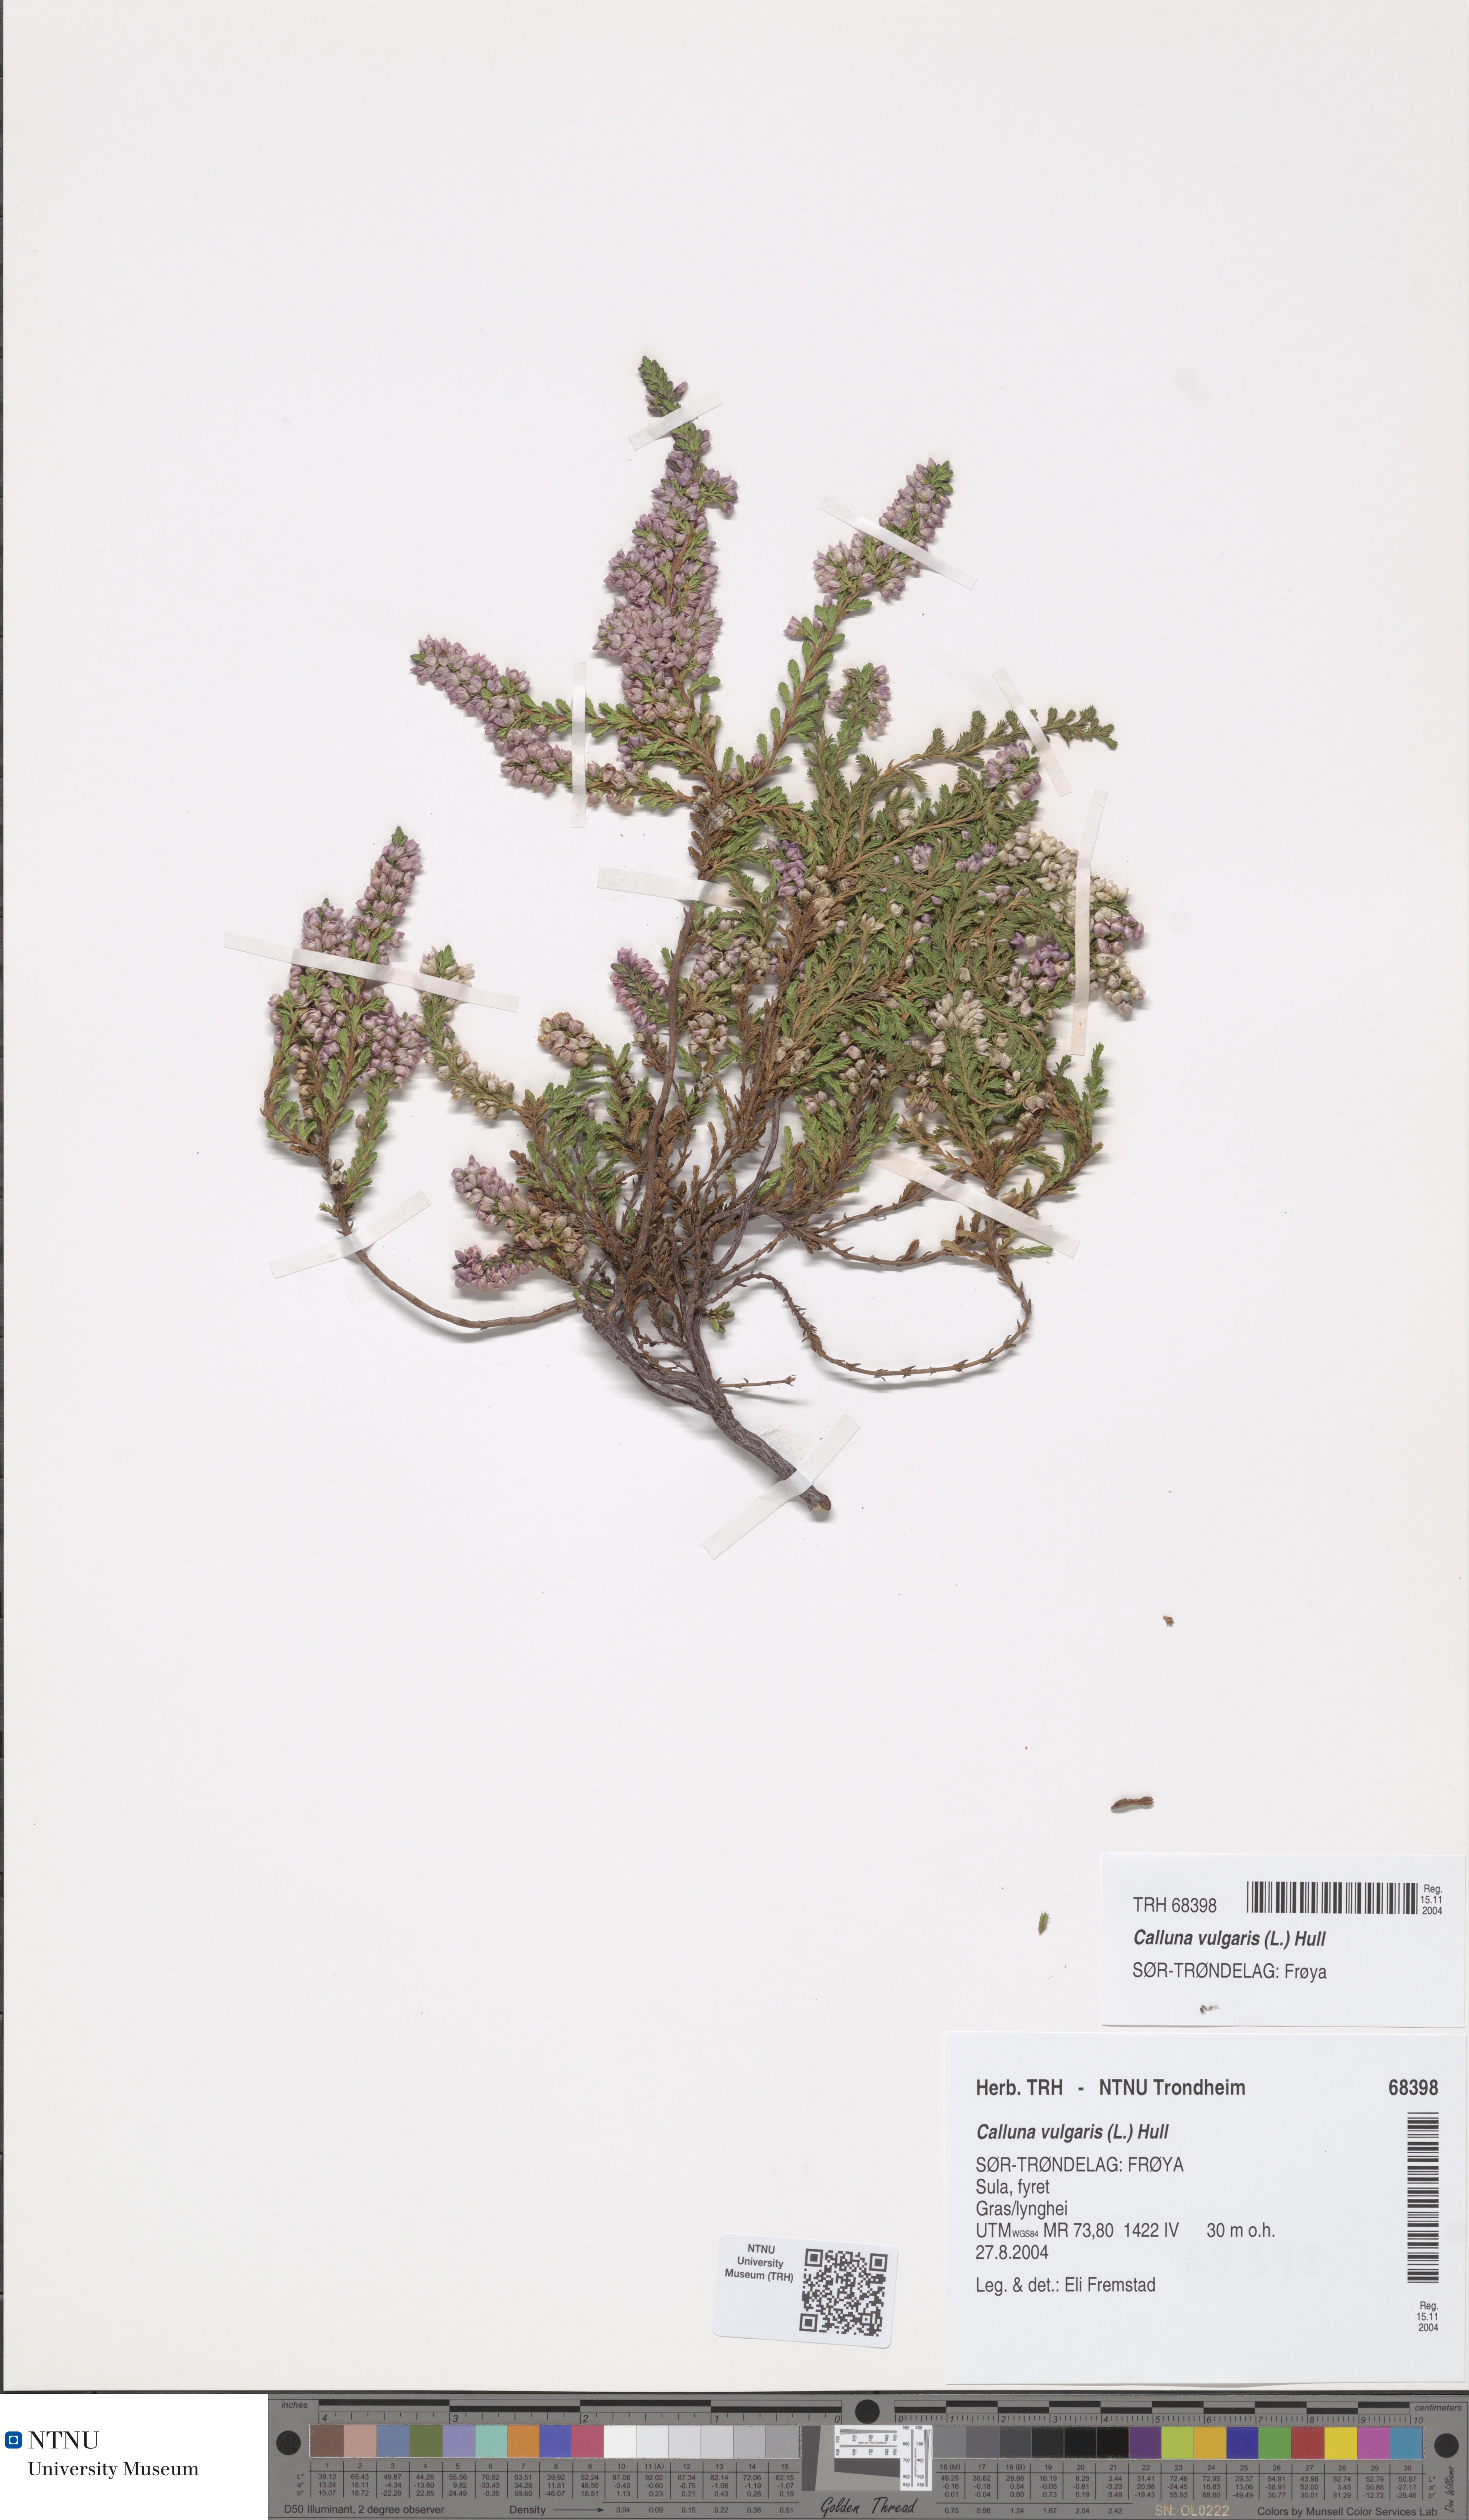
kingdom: Plantae
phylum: Tracheophyta
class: Magnoliopsida
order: Ericales
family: Ericaceae
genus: Calluna
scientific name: Calluna vulgaris
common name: Heather
